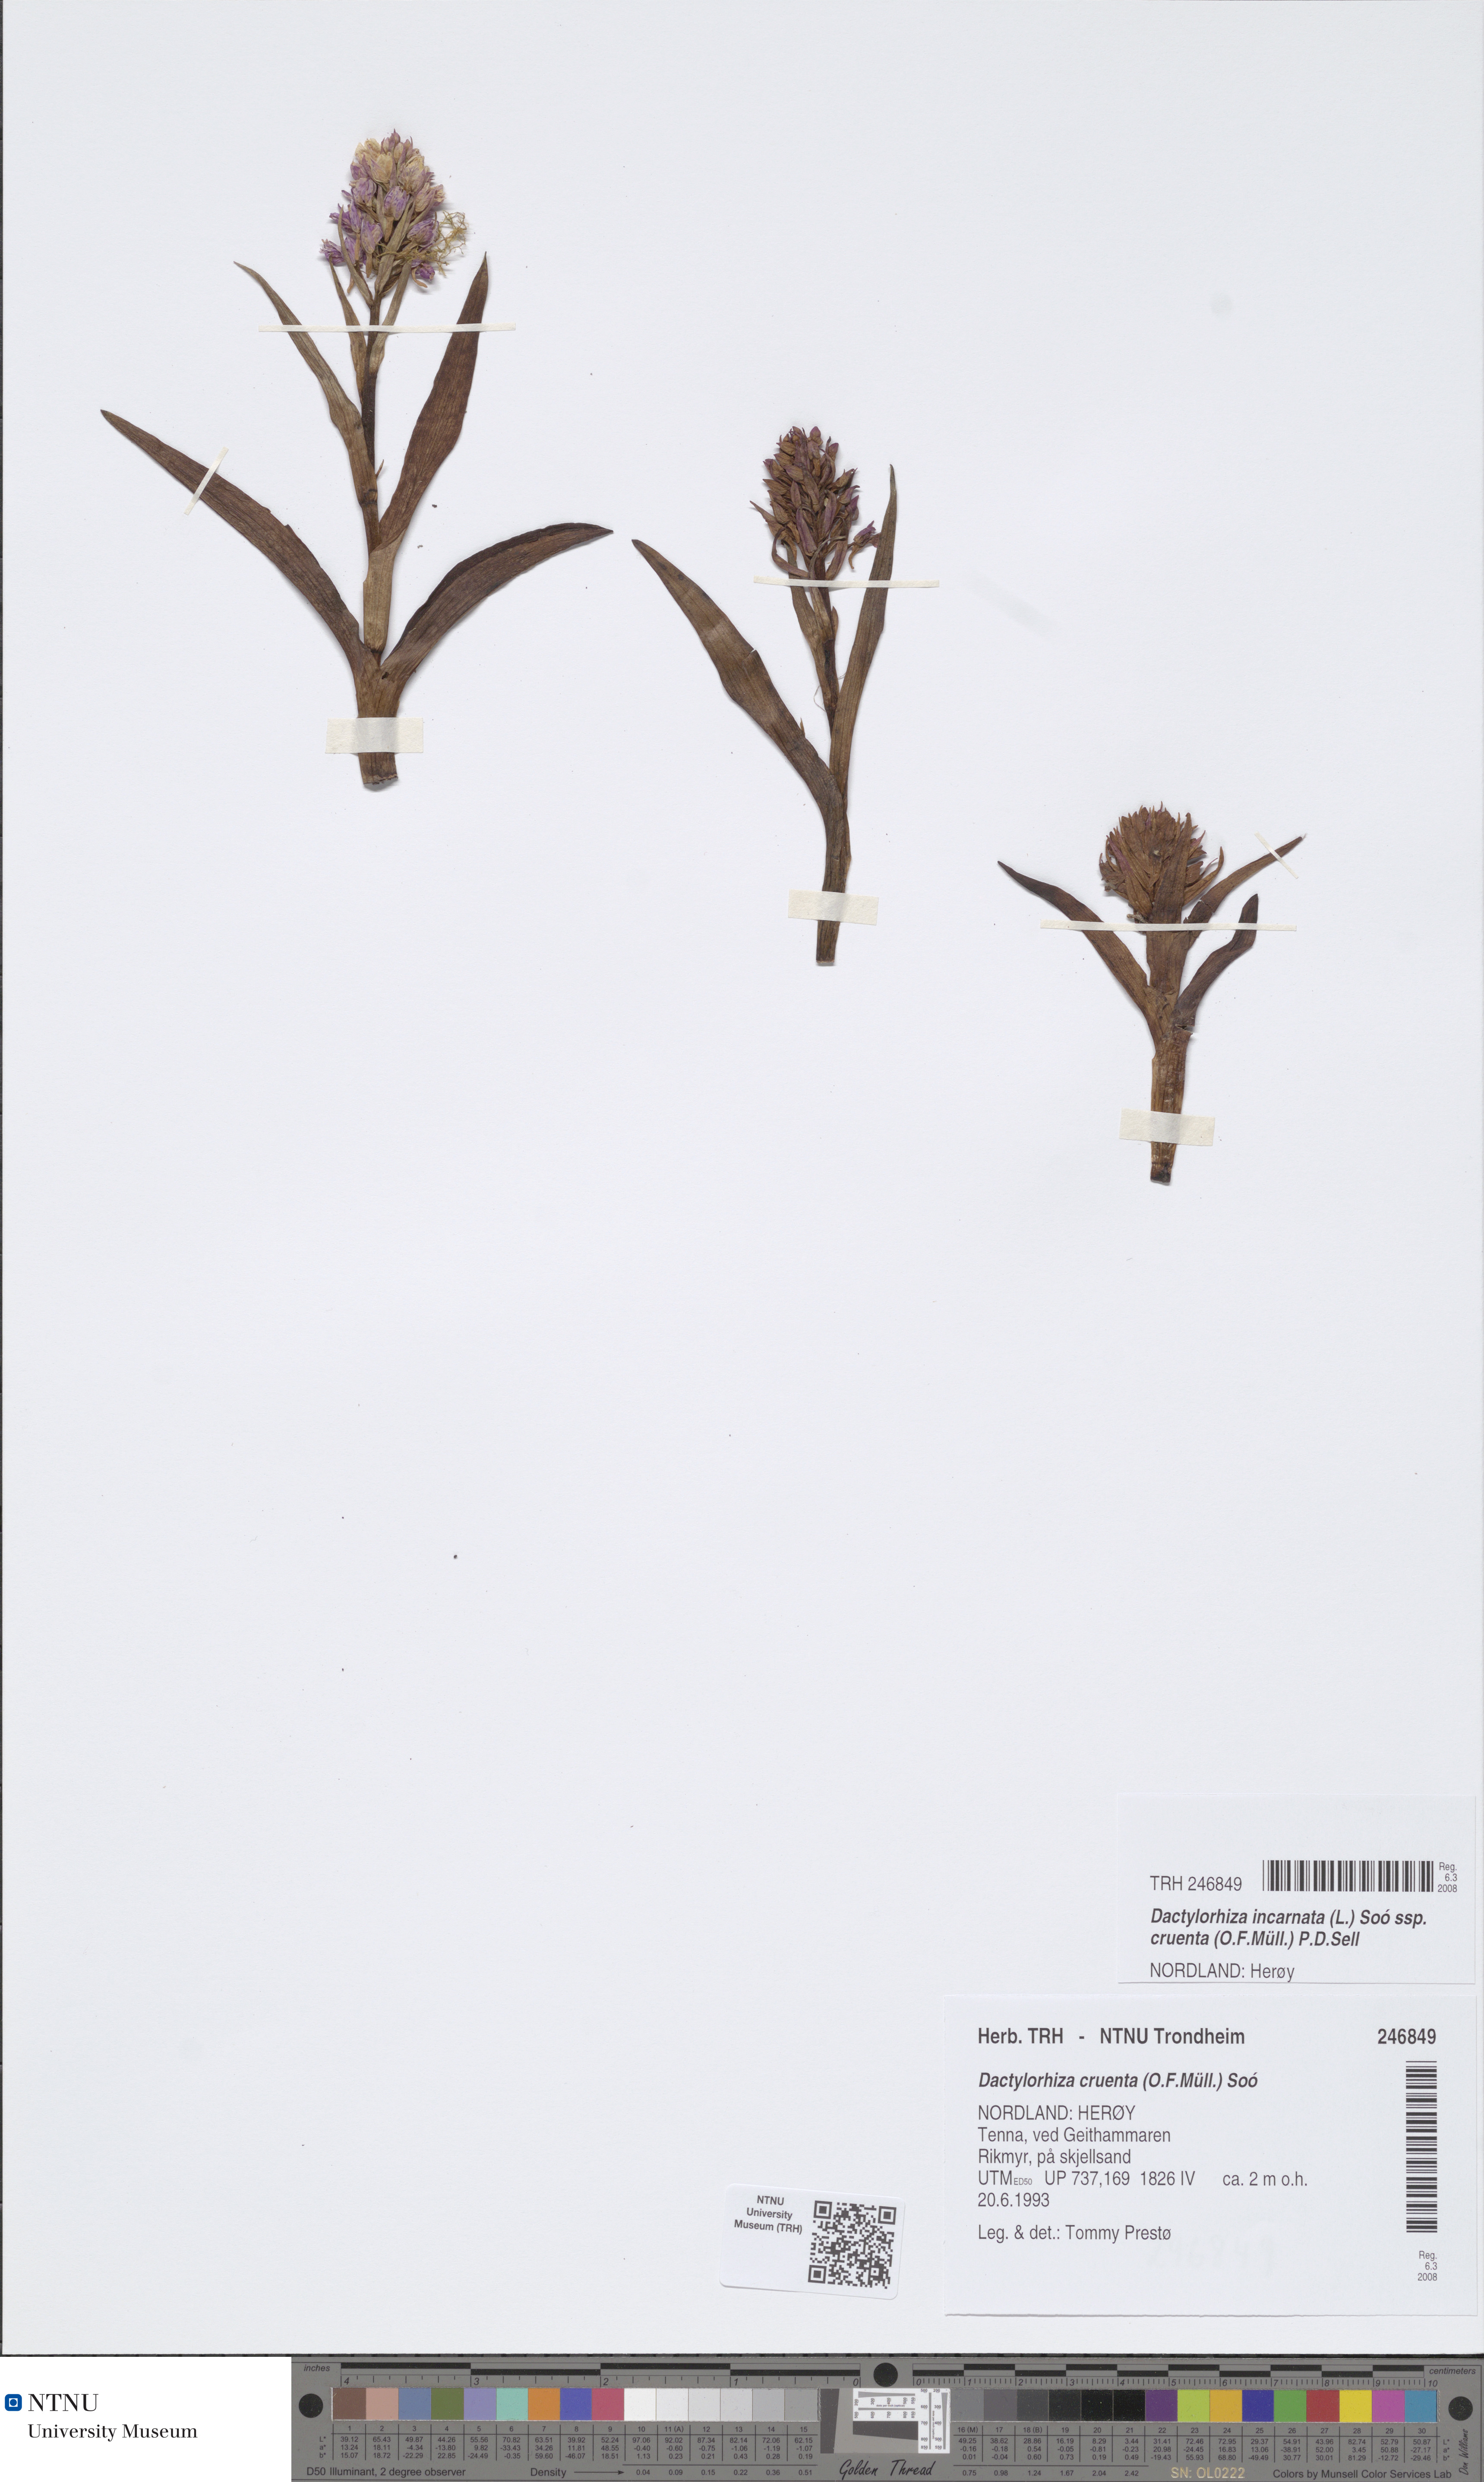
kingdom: Plantae
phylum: Tracheophyta
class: Liliopsida
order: Asparagales
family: Orchidaceae
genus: Dactylorhiza
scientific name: Dactylorhiza incarnata
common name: Early marsh-orchid
